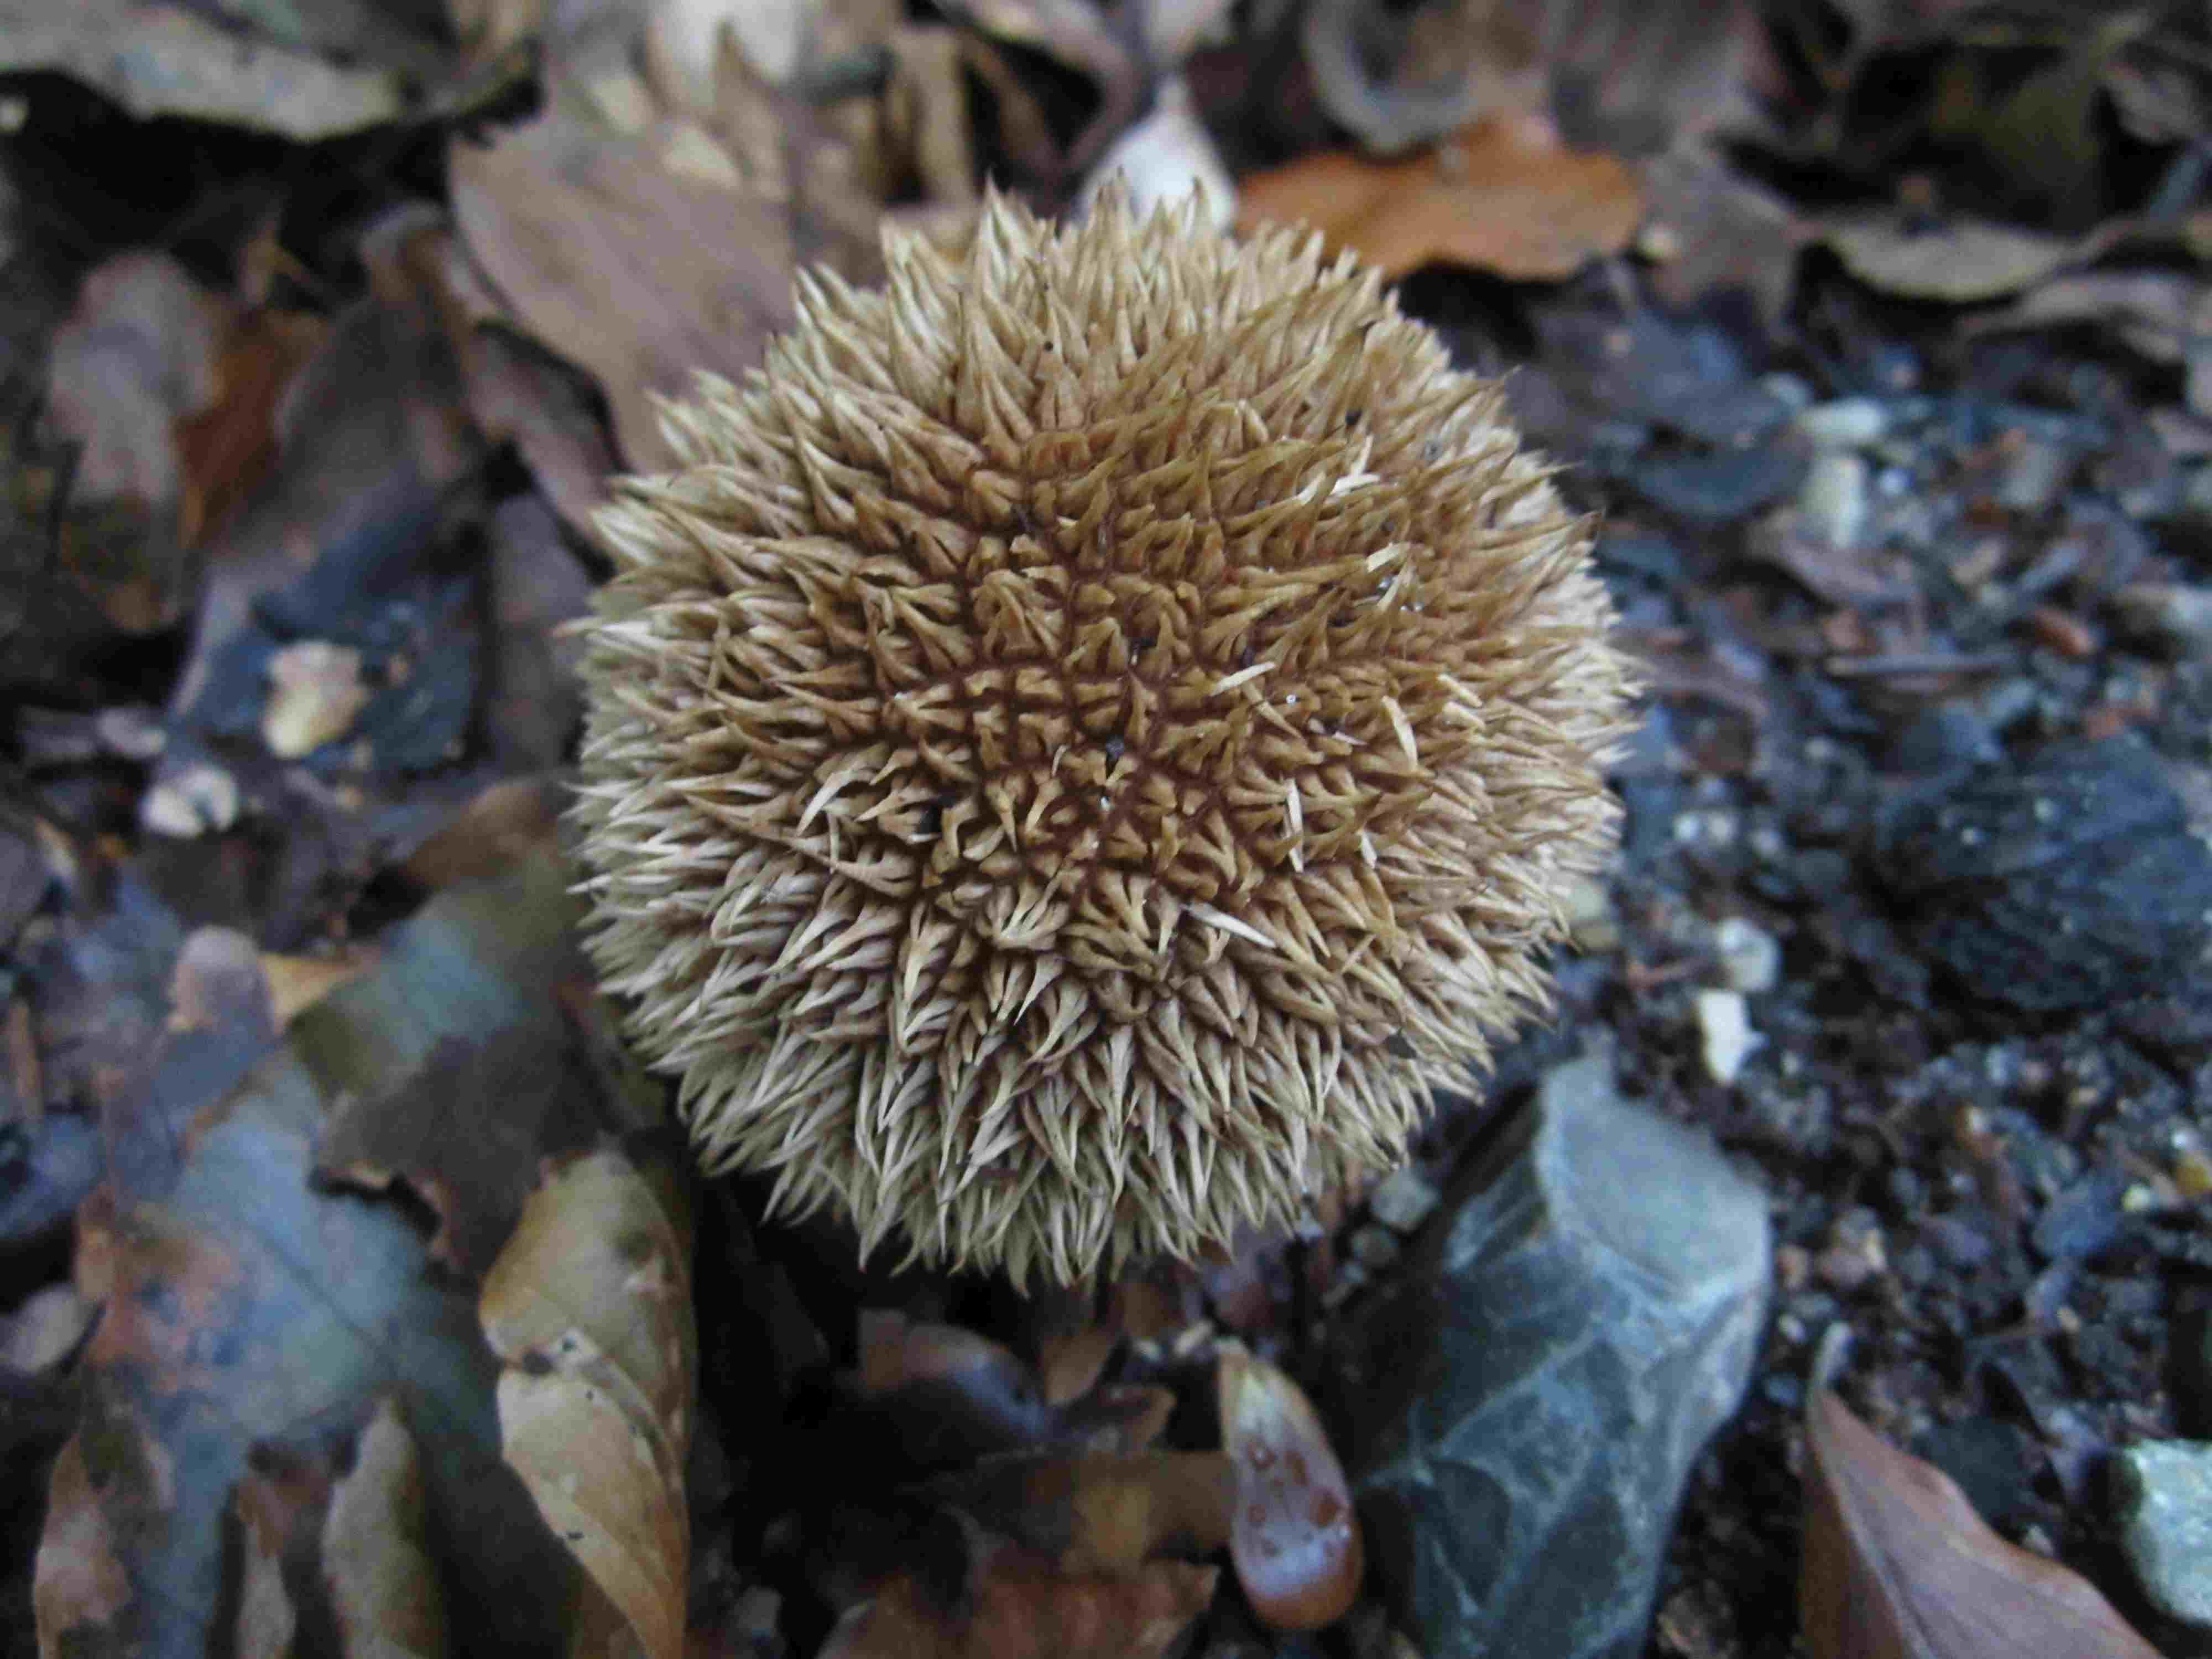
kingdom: Fungi
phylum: Basidiomycota
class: Agaricomycetes
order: Agaricales
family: Lycoperdaceae
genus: Lycoperdon
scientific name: Lycoperdon echinatum
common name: pindsvine-støvbold
